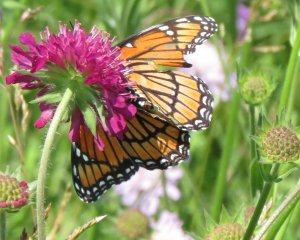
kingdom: Animalia
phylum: Arthropoda
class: Insecta
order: Lepidoptera
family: Nymphalidae
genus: Limenitis
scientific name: Limenitis archippus
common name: Viceroy
